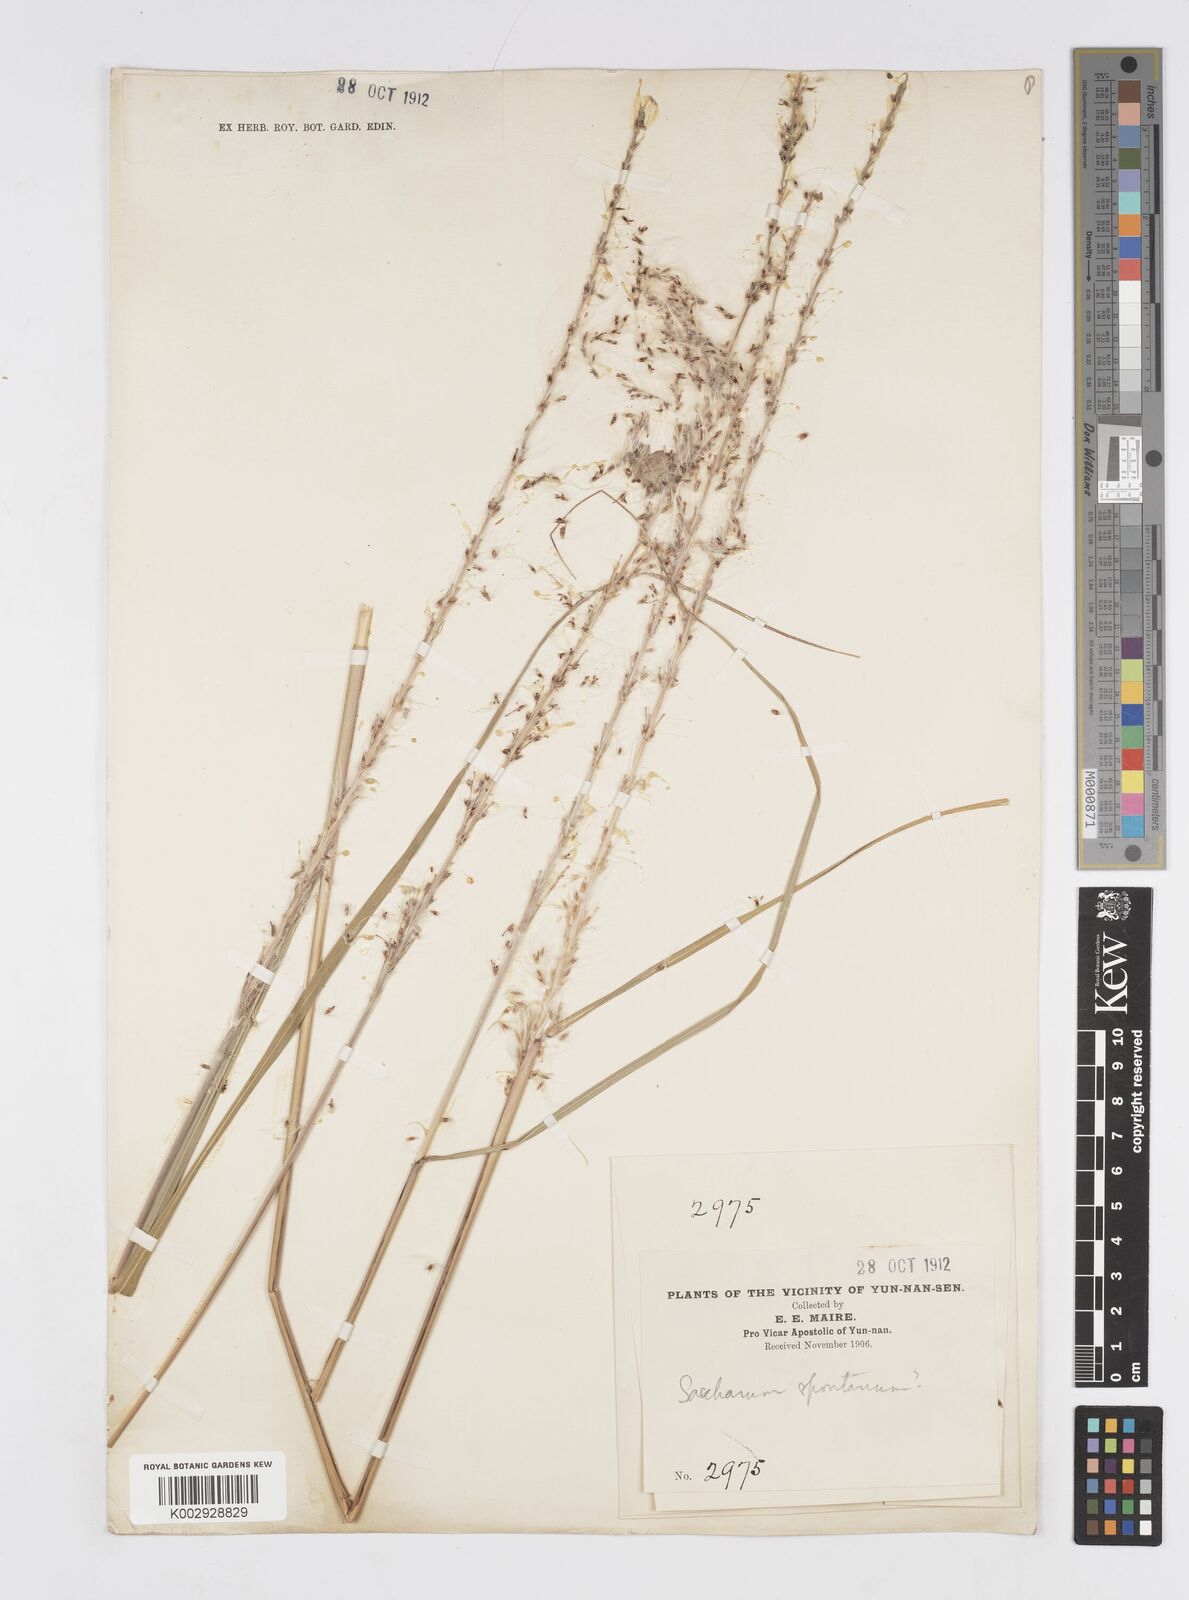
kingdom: Plantae
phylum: Tracheophyta
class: Liliopsida
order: Poales
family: Poaceae
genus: Saccharum
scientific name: Saccharum spontaneum
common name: Wild sugarcane
